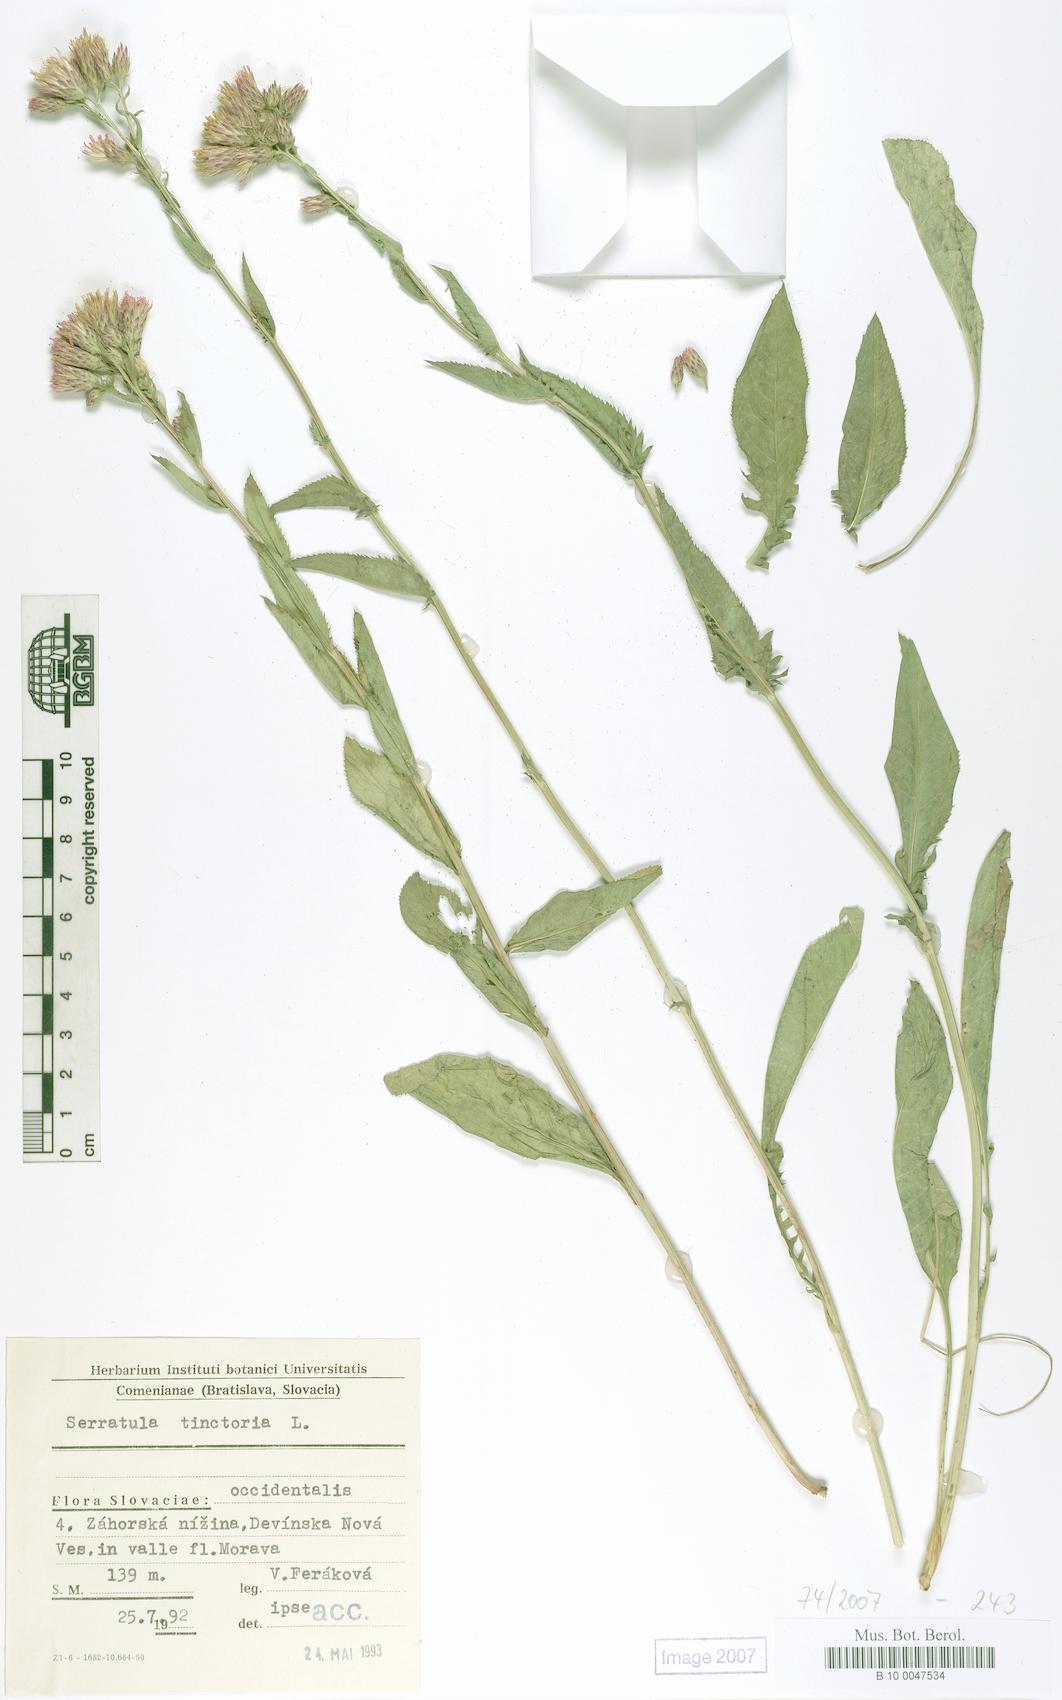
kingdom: Plantae
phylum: Tracheophyta
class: Magnoliopsida
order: Asterales
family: Asteraceae
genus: Serratula
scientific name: Serratula tinctoria
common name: Saw-wort
